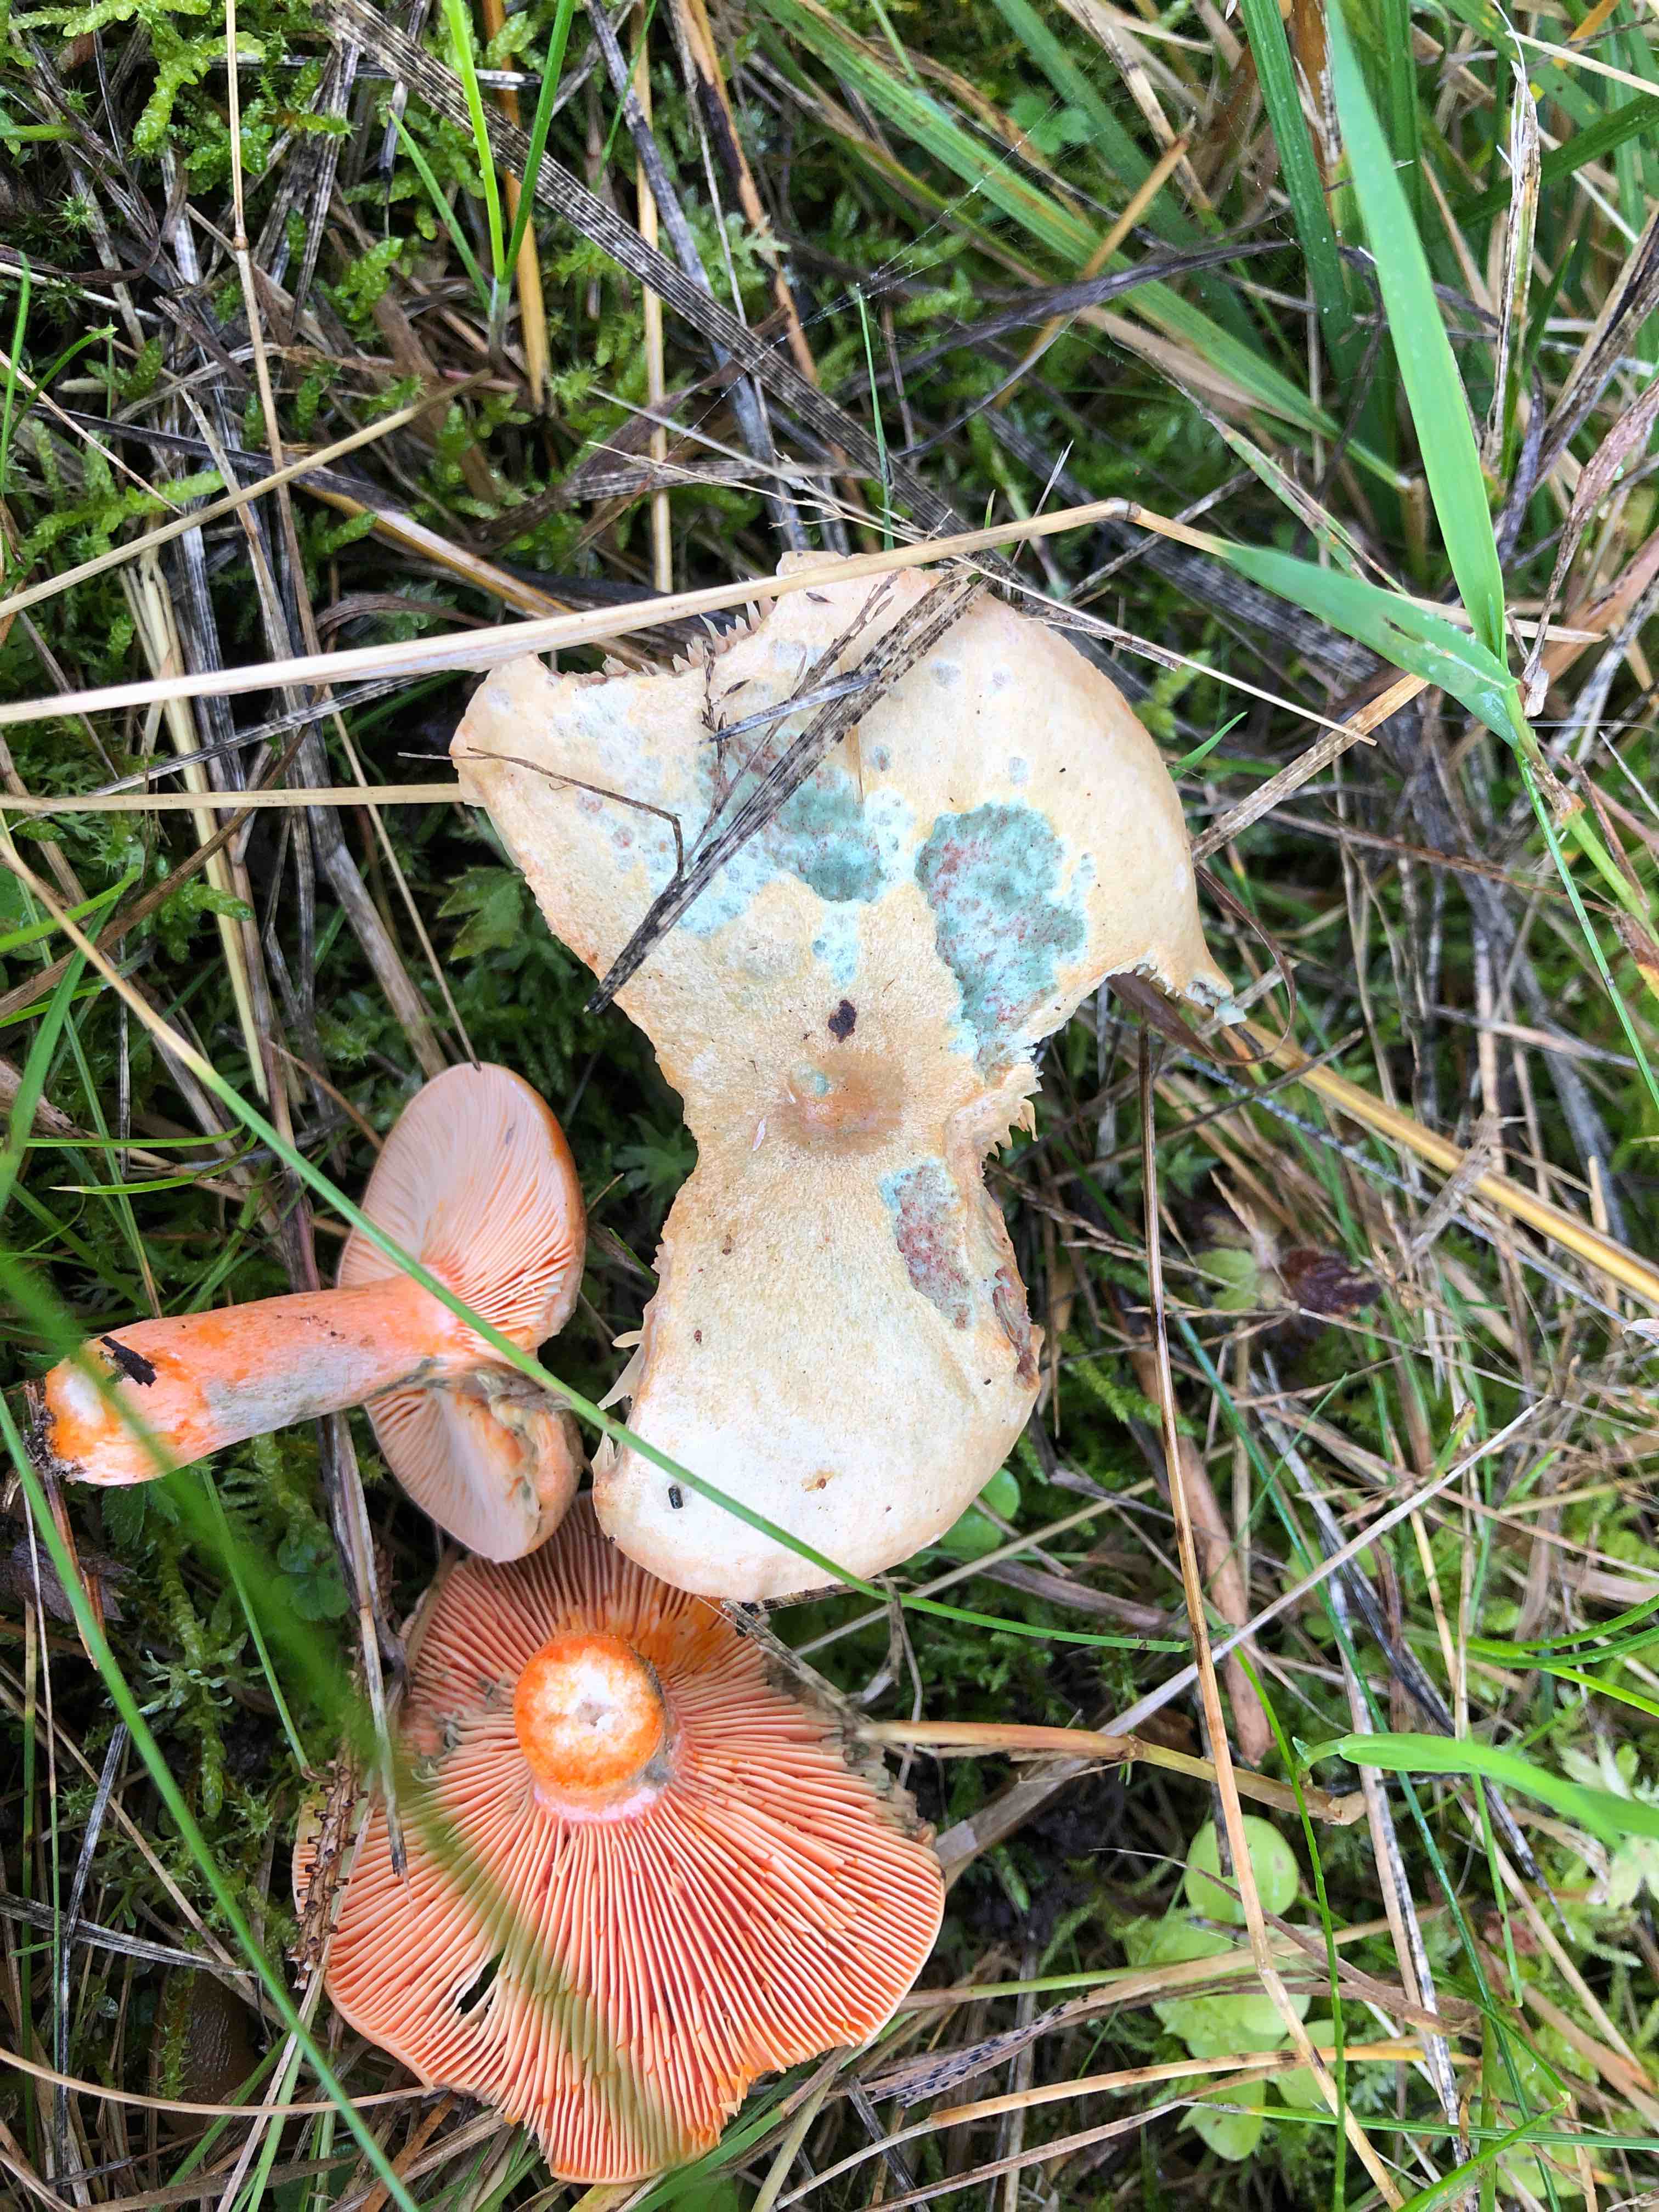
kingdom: Fungi
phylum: Basidiomycota
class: Agaricomycetes
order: Russulales
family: Russulaceae
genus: Lactarius
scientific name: Lactarius deterrimus
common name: gran-mælkehat
